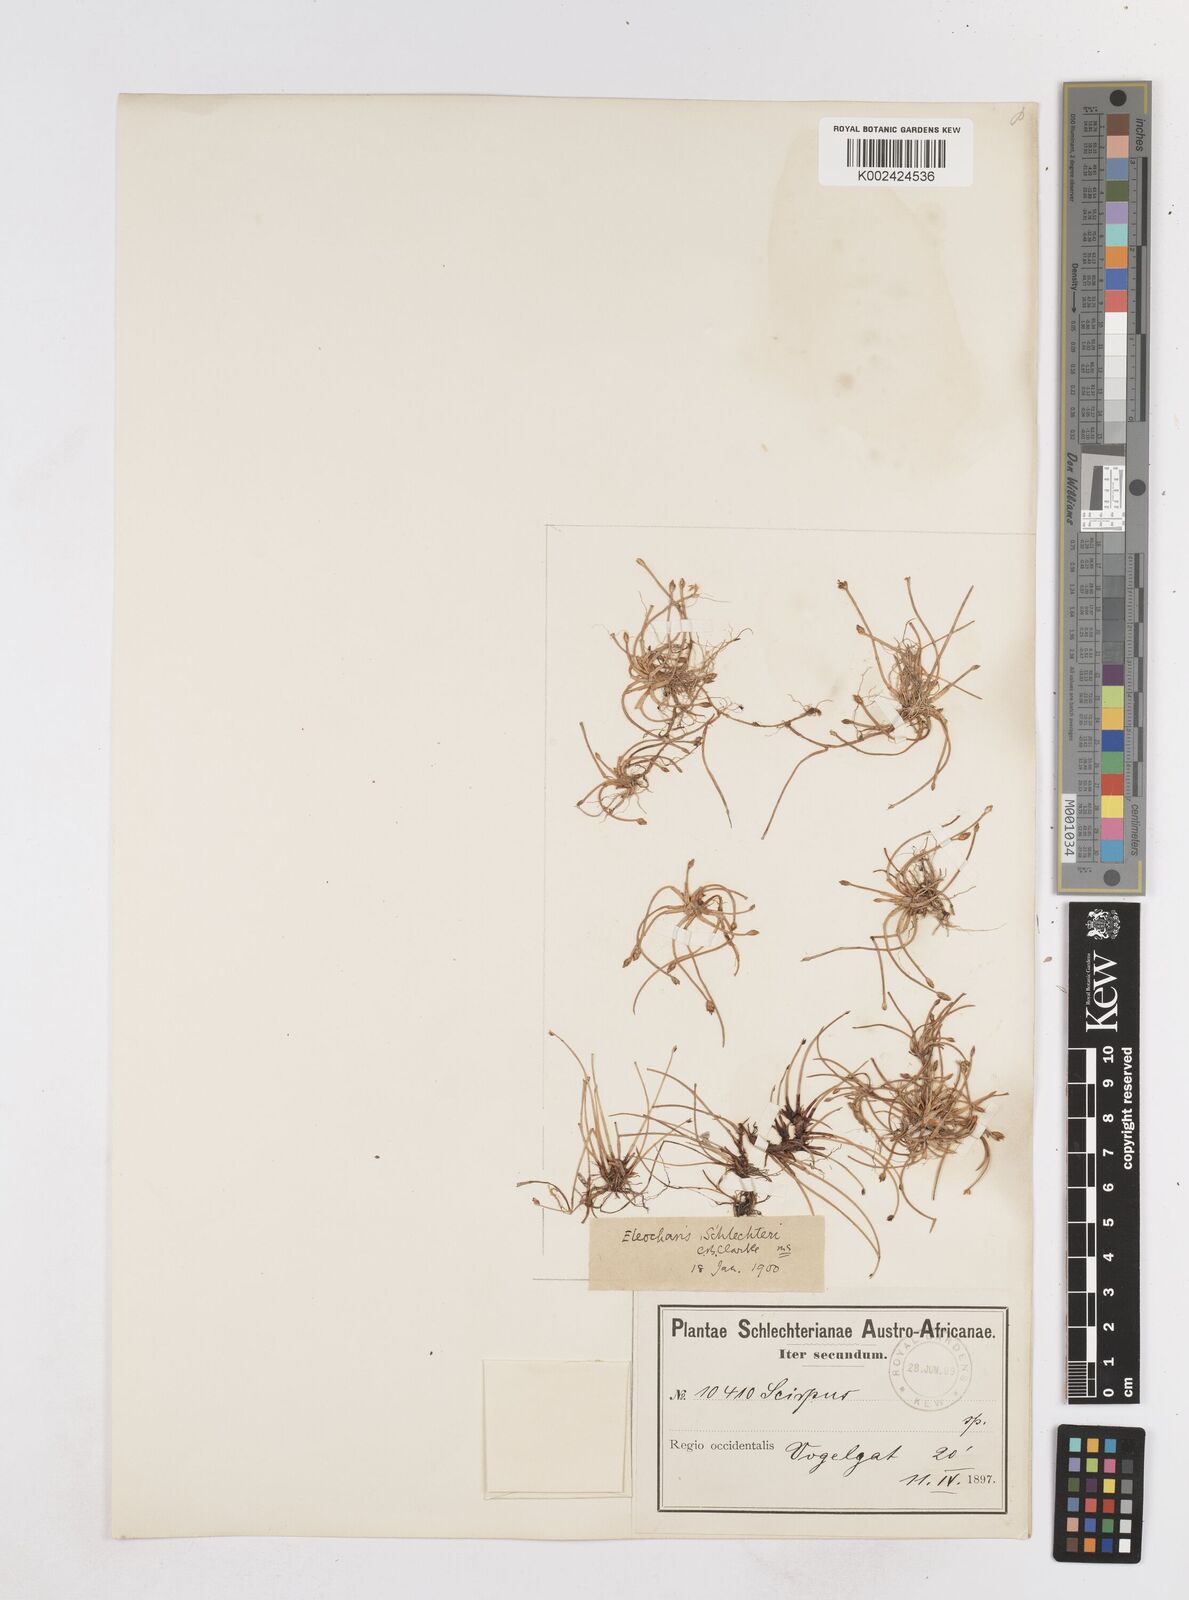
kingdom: Plantae
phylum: Tracheophyta
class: Liliopsida
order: Poales
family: Cyperaceae
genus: Eleocharis
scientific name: Eleocharis geniculata
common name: Canada spikesedge
